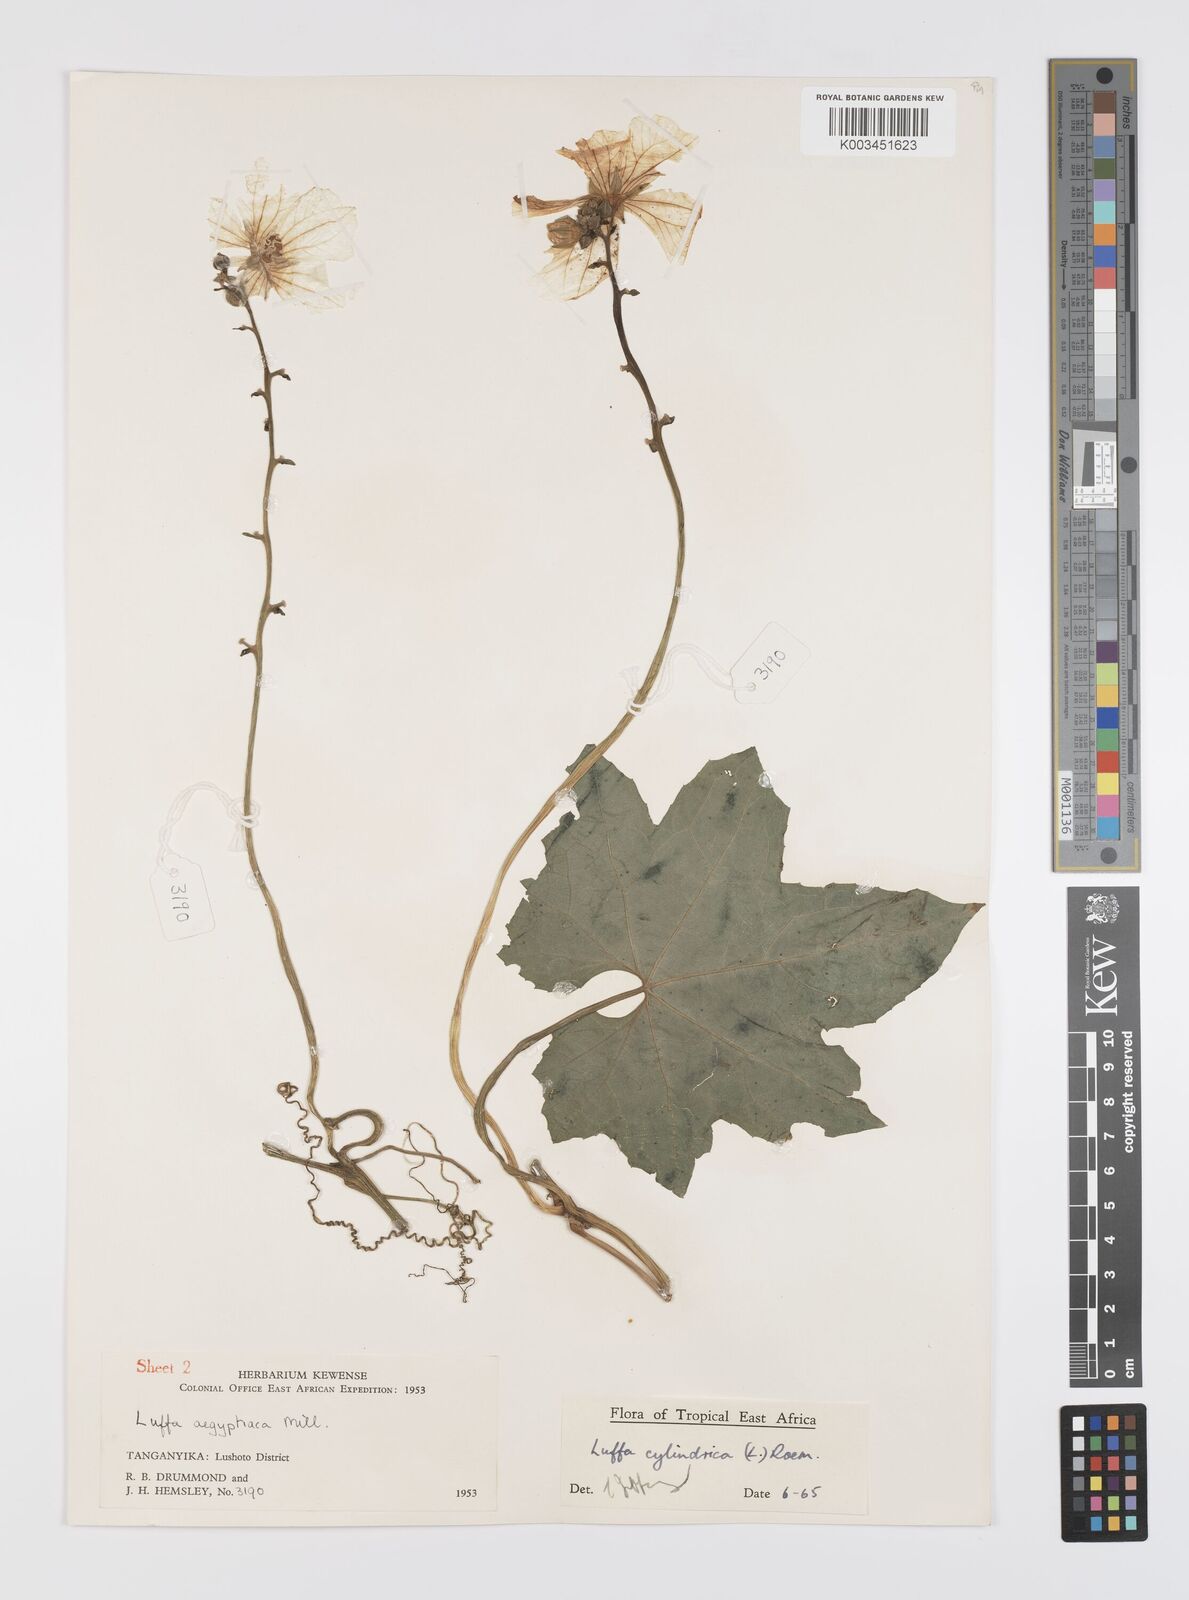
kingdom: Plantae
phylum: Tracheophyta
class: Magnoliopsida
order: Cucurbitales
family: Cucurbitaceae
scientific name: Cucurbitaceae
